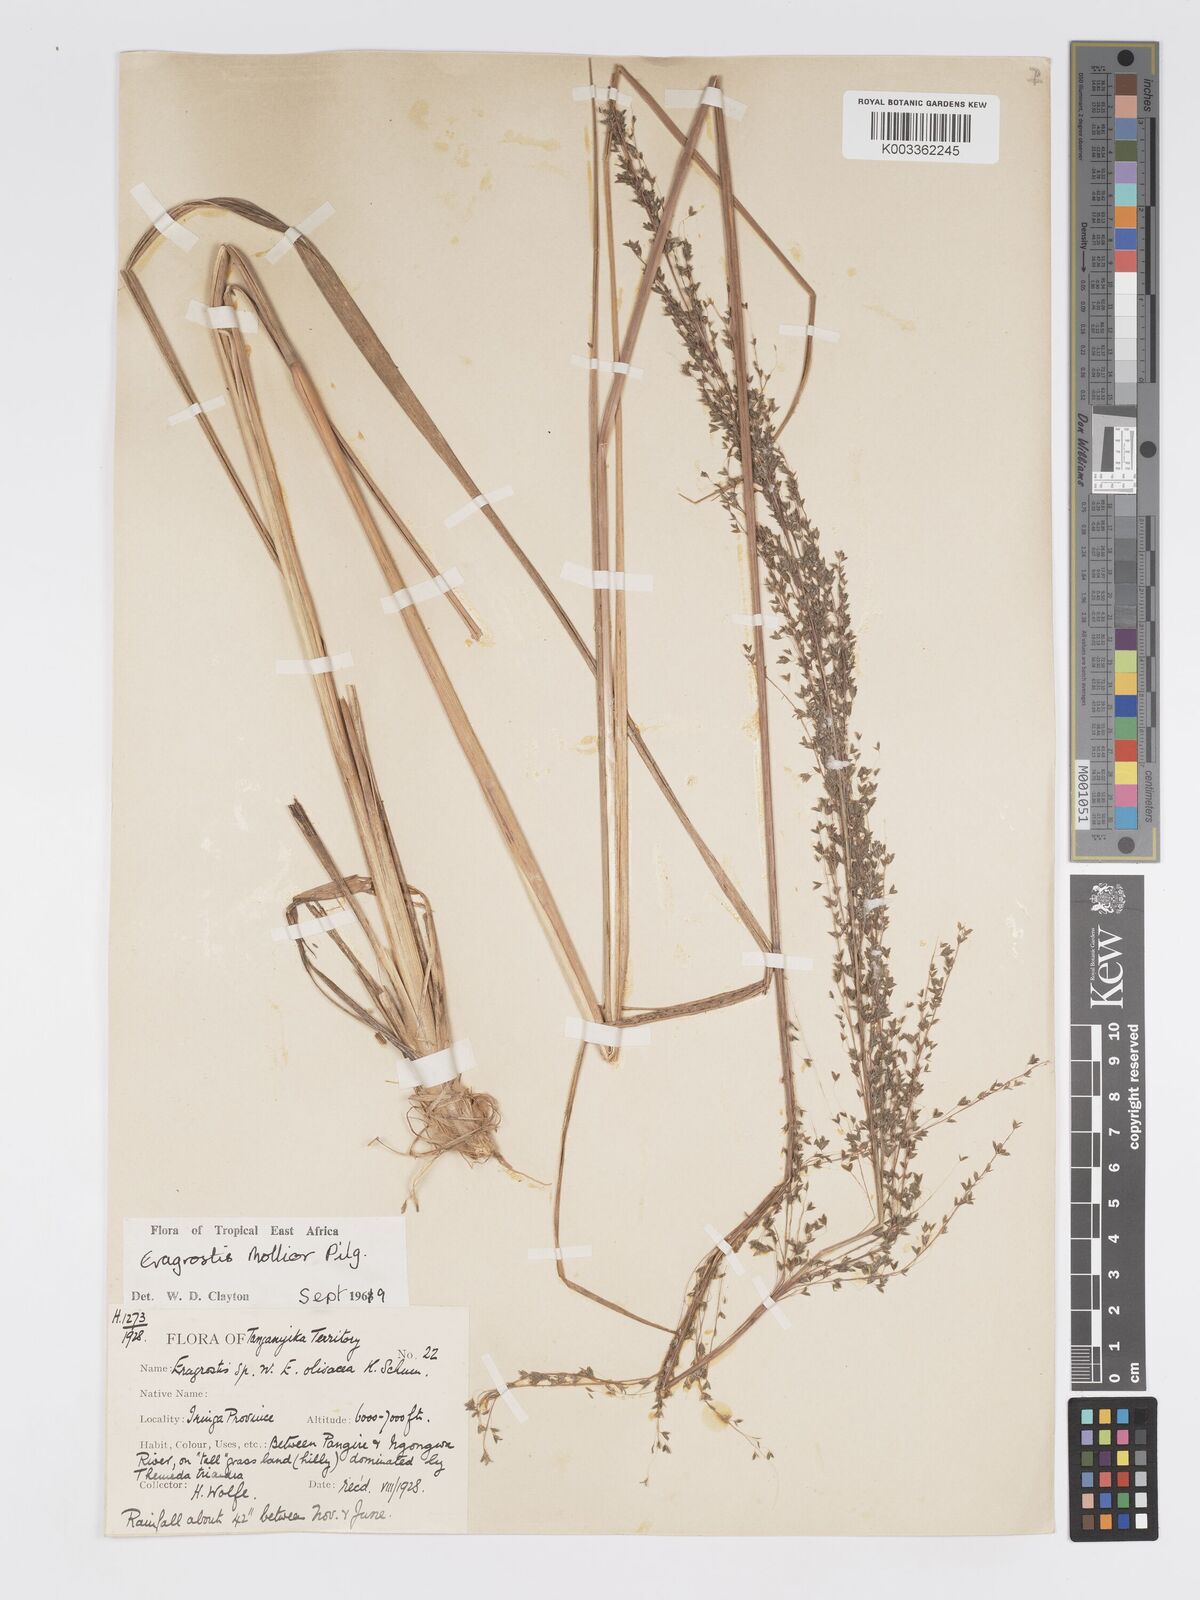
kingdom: Plantae
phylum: Tracheophyta
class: Liliopsida
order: Poales
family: Poaceae
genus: Eragrostis
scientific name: Eragrostis mollior
